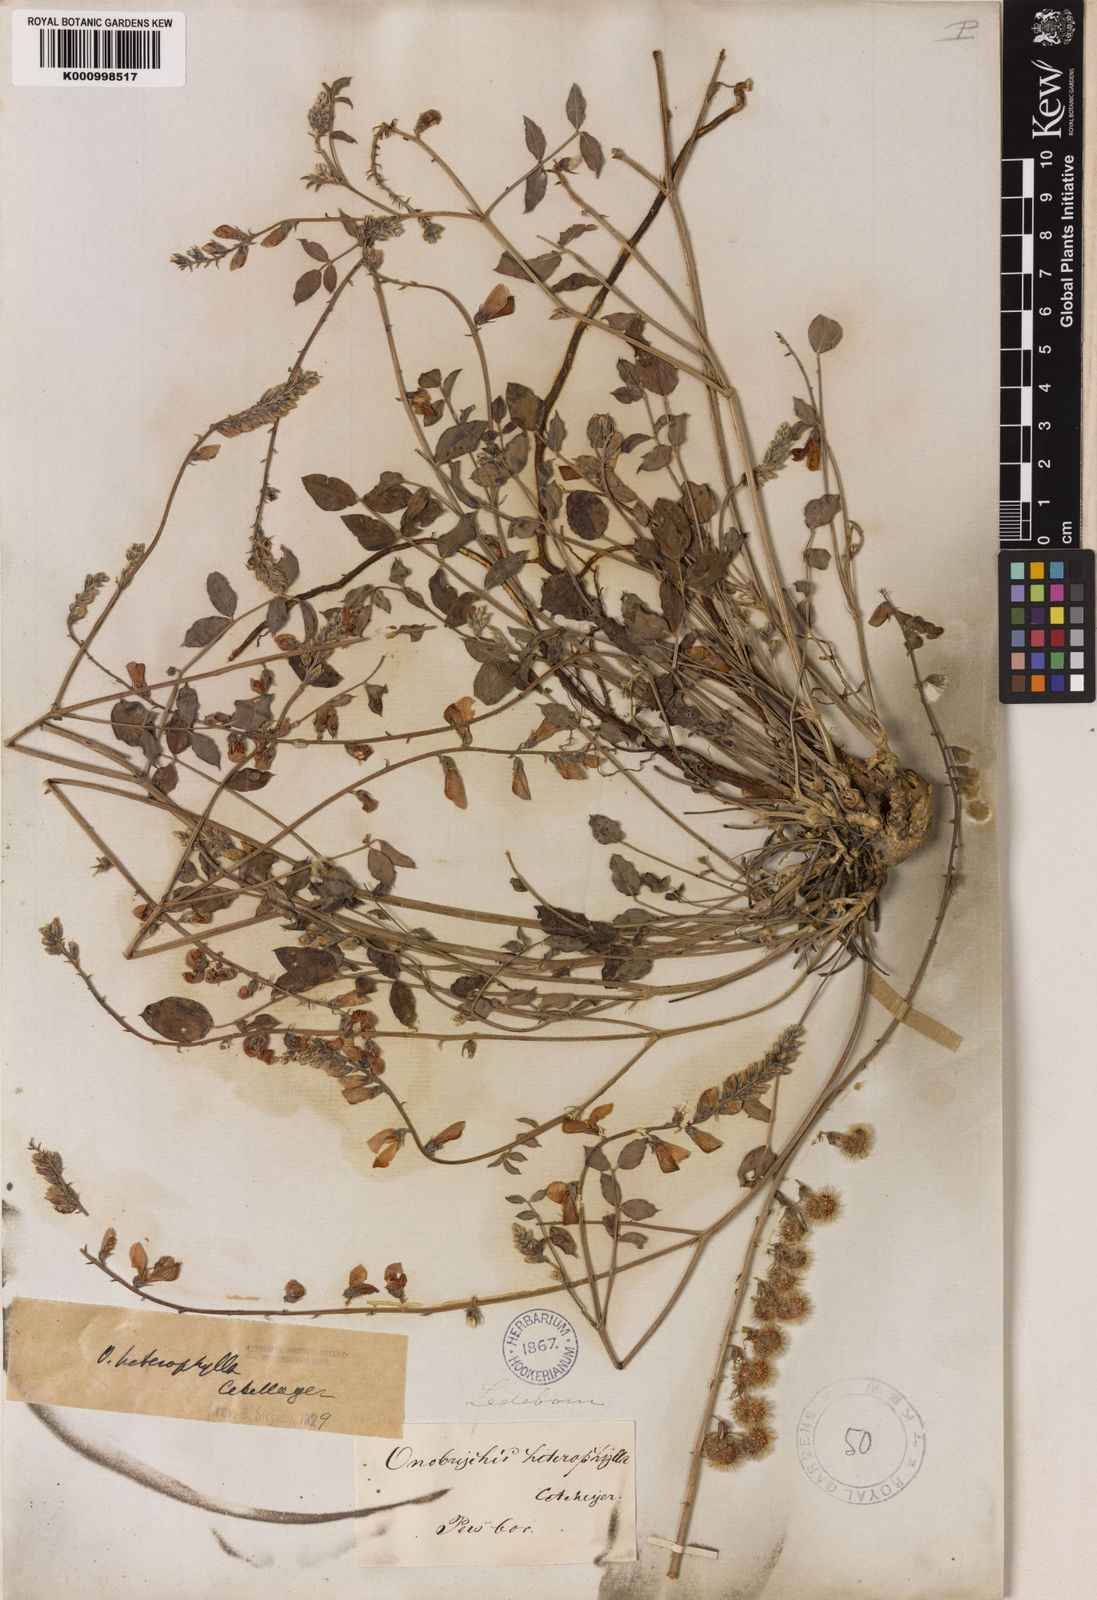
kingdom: Plantae
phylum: Tracheophyta
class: Magnoliopsida
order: Fabales
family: Fabaceae
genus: Onobrychis
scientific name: Onobrychis heterophylla
